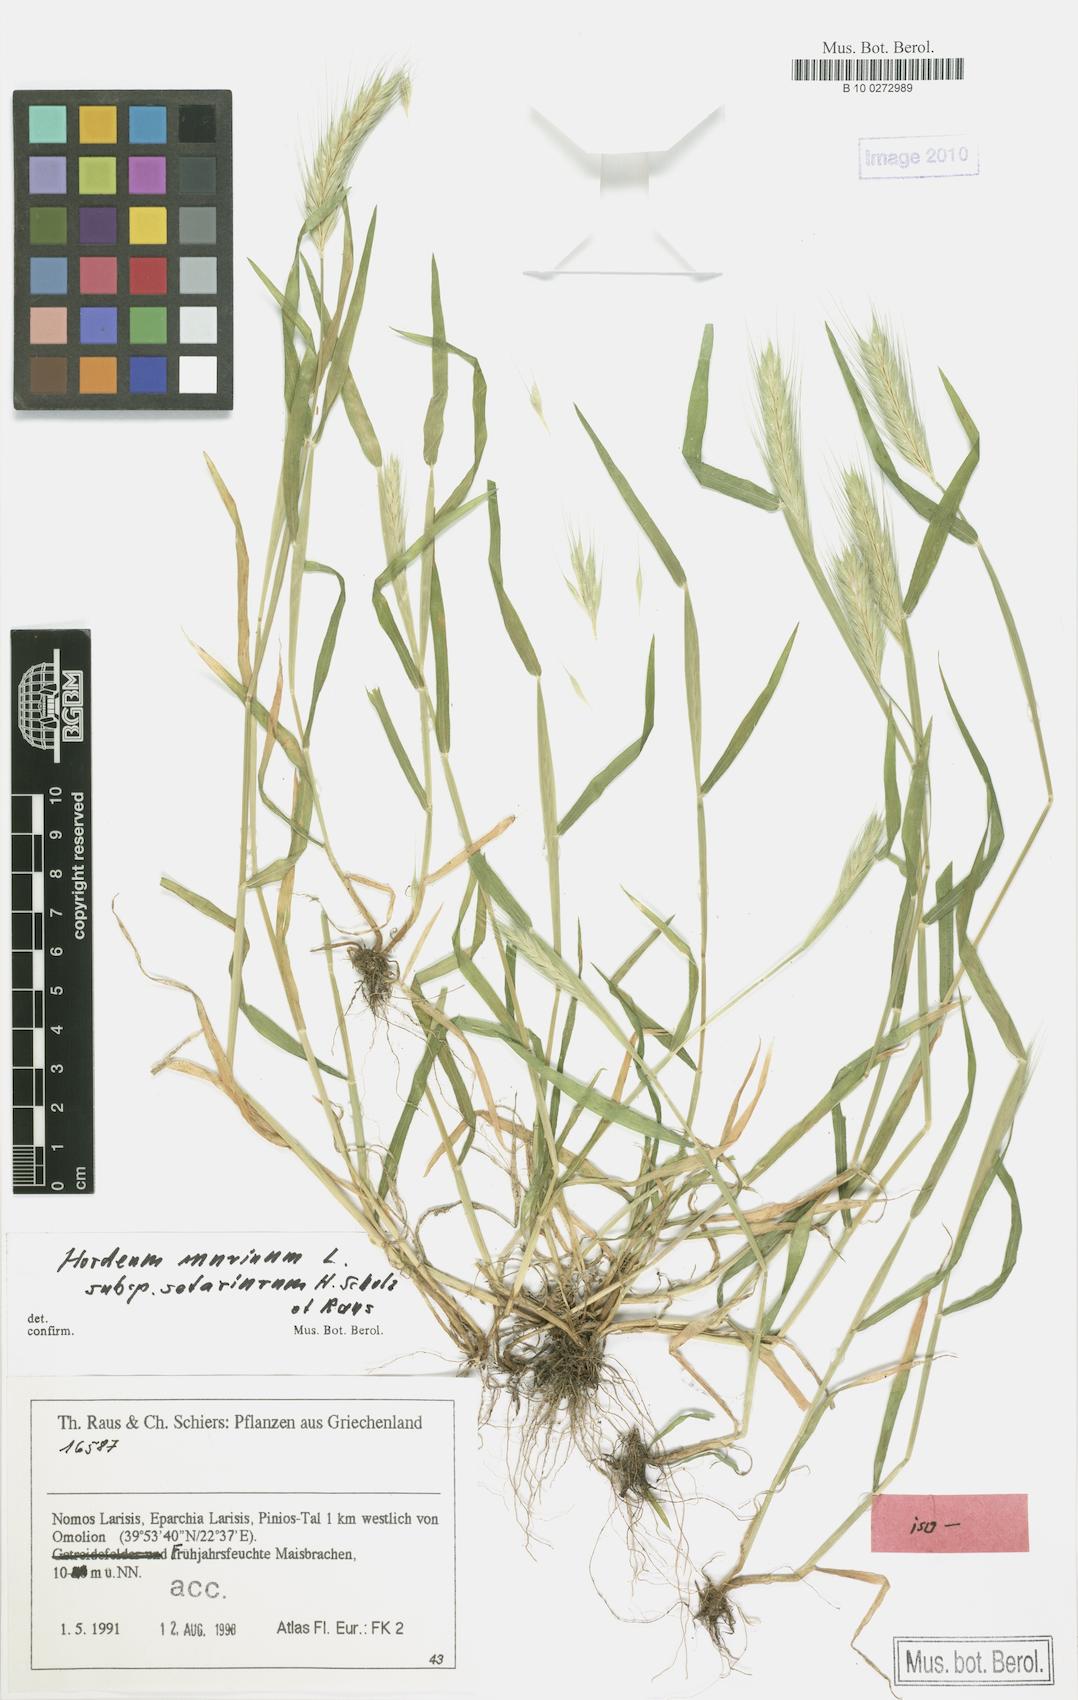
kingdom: Plantae
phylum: Tracheophyta
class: Liliopsida
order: Poales
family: Poaceae
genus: Hordeum
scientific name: Hordeum murinum
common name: Wall barley
